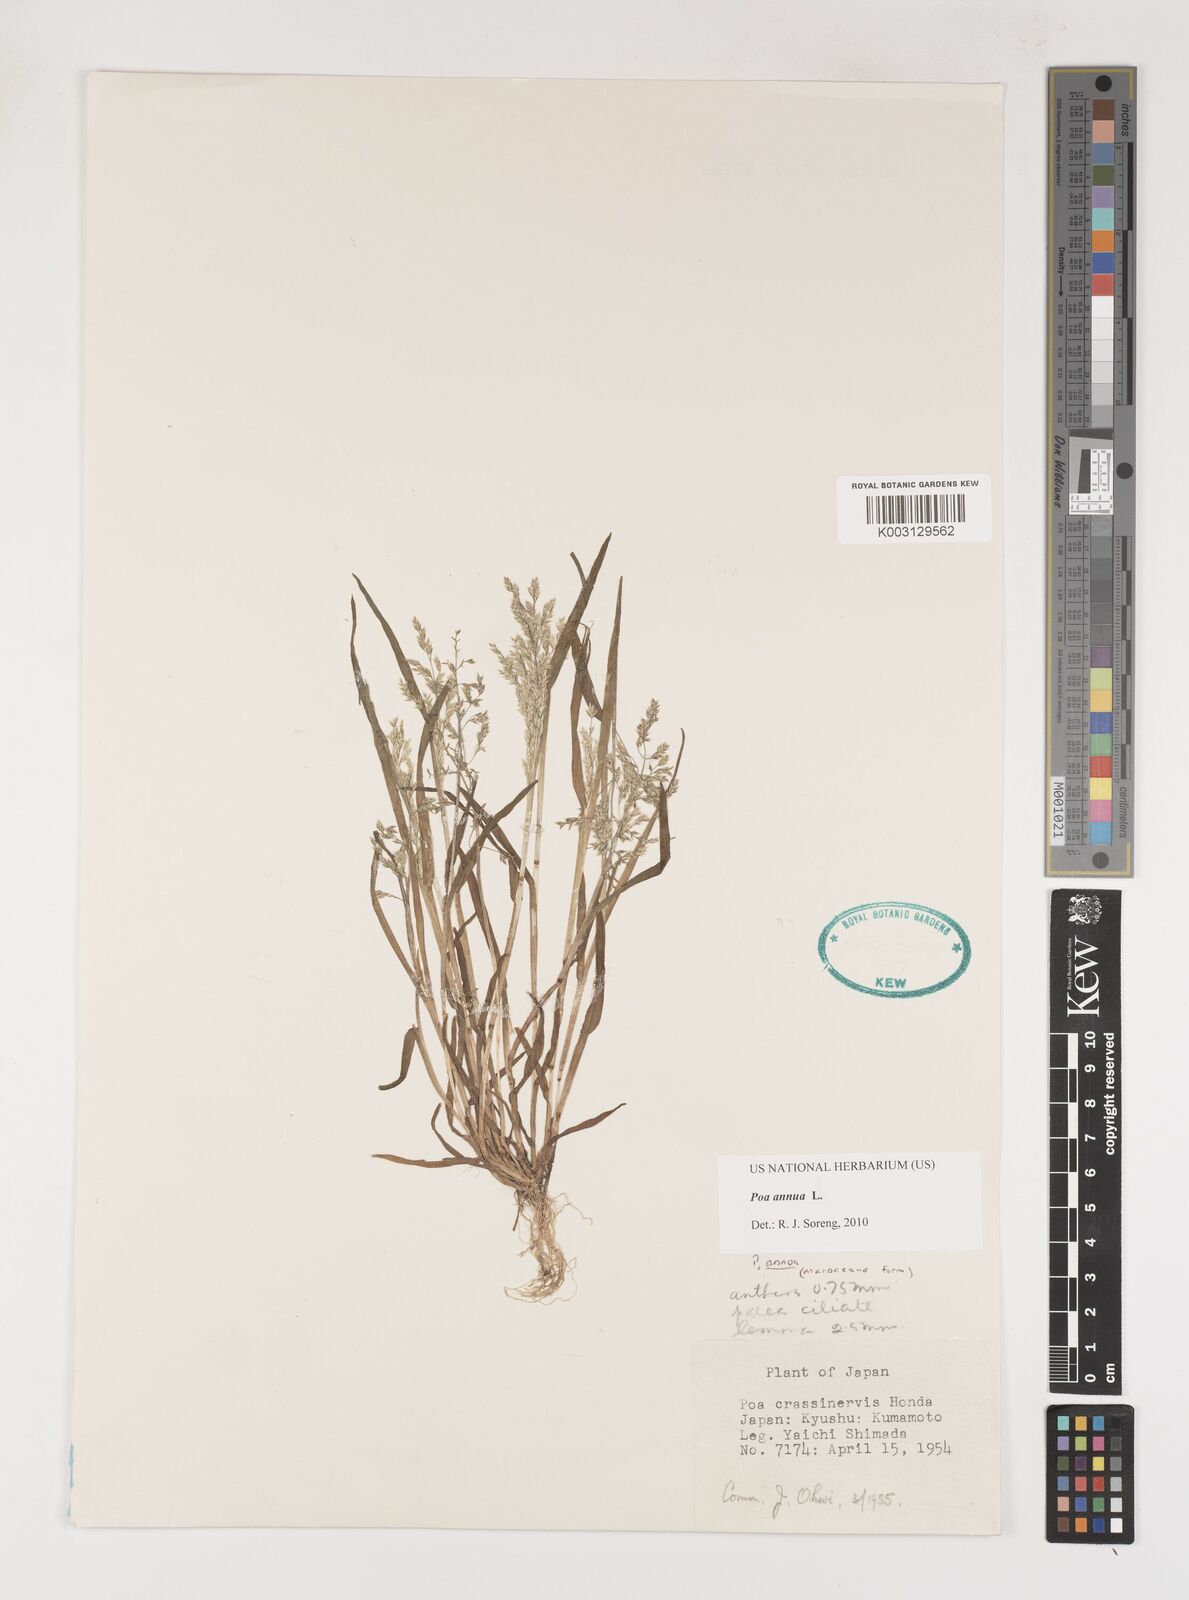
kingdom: Plantae
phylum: Tracheophyta
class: Liliopsida
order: Poales
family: Poaceae
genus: Poa
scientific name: Poa annua
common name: Annual bluegrass
